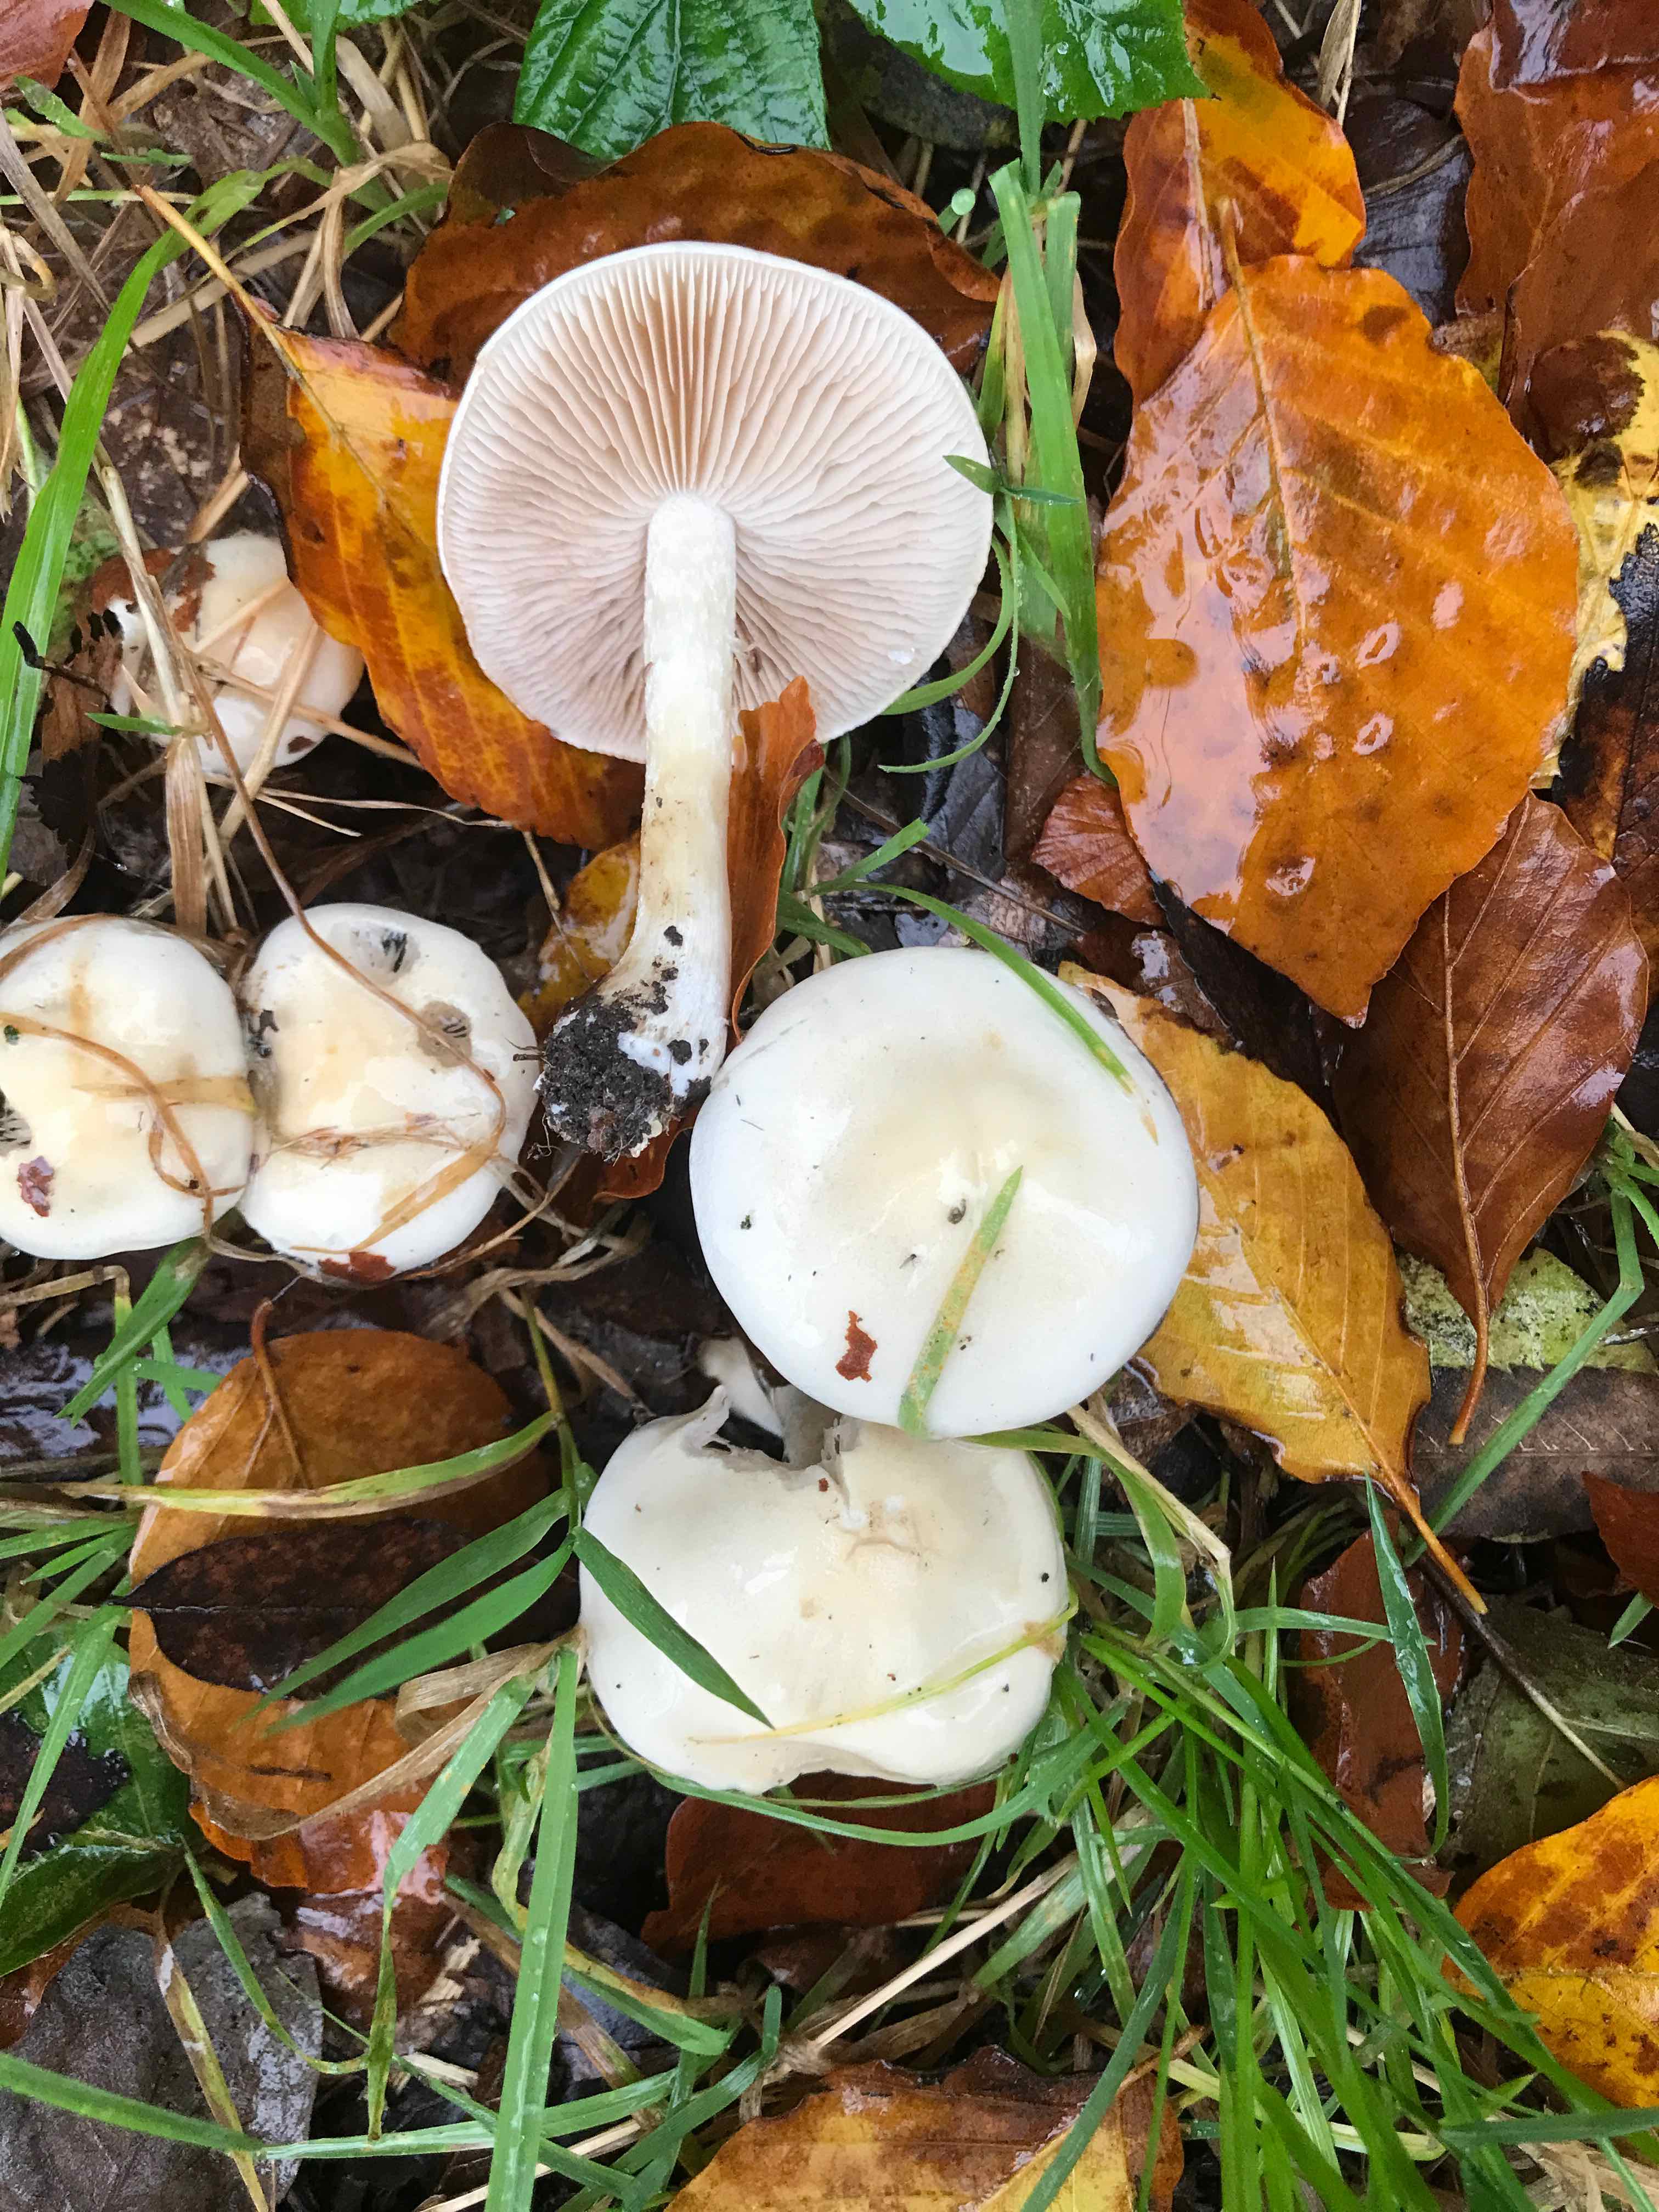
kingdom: Fungi
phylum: Basidiomycota
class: Agaricomycetes
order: Agaricales
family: Hymenogastraceae
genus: Hebeloma
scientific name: Hebeloma
